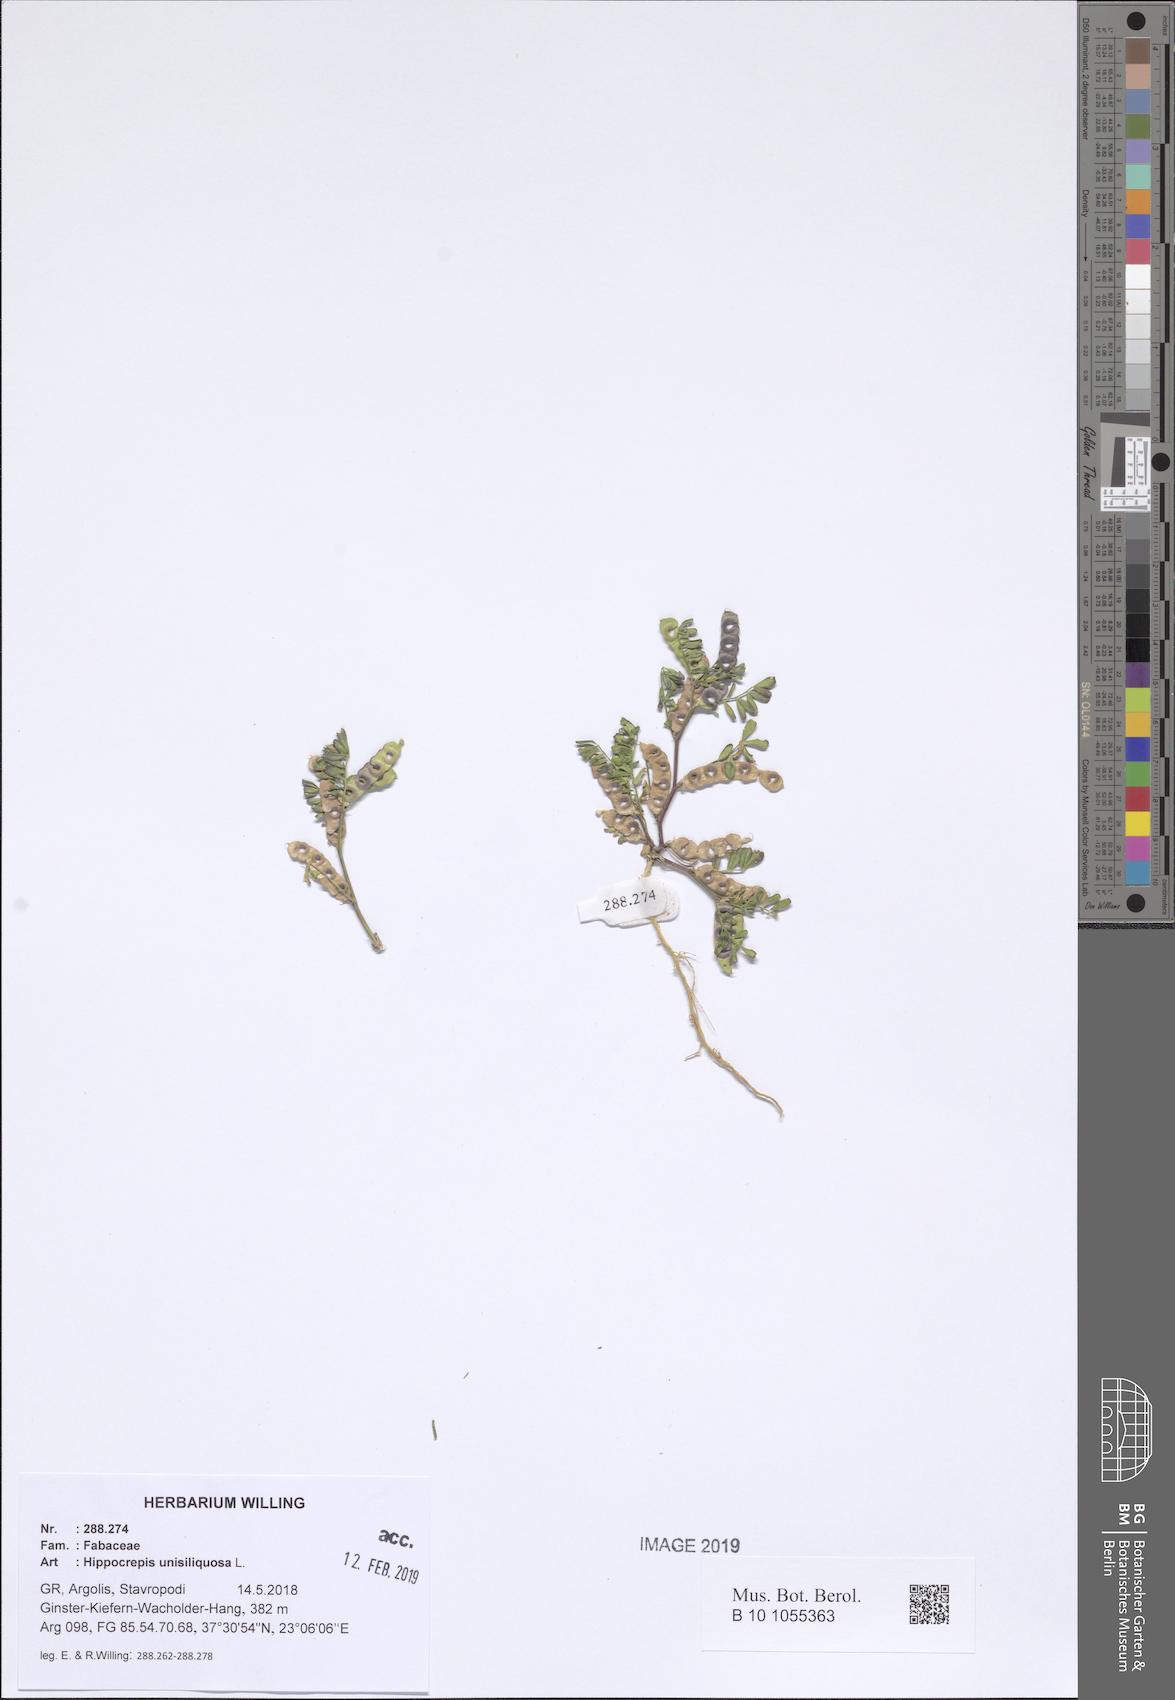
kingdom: Plantae
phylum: Tracheophyta
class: Magnoliopsida
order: Fabales
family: Fabaceae
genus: Hippocrepis
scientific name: Hippocrepis unisiliquosa
